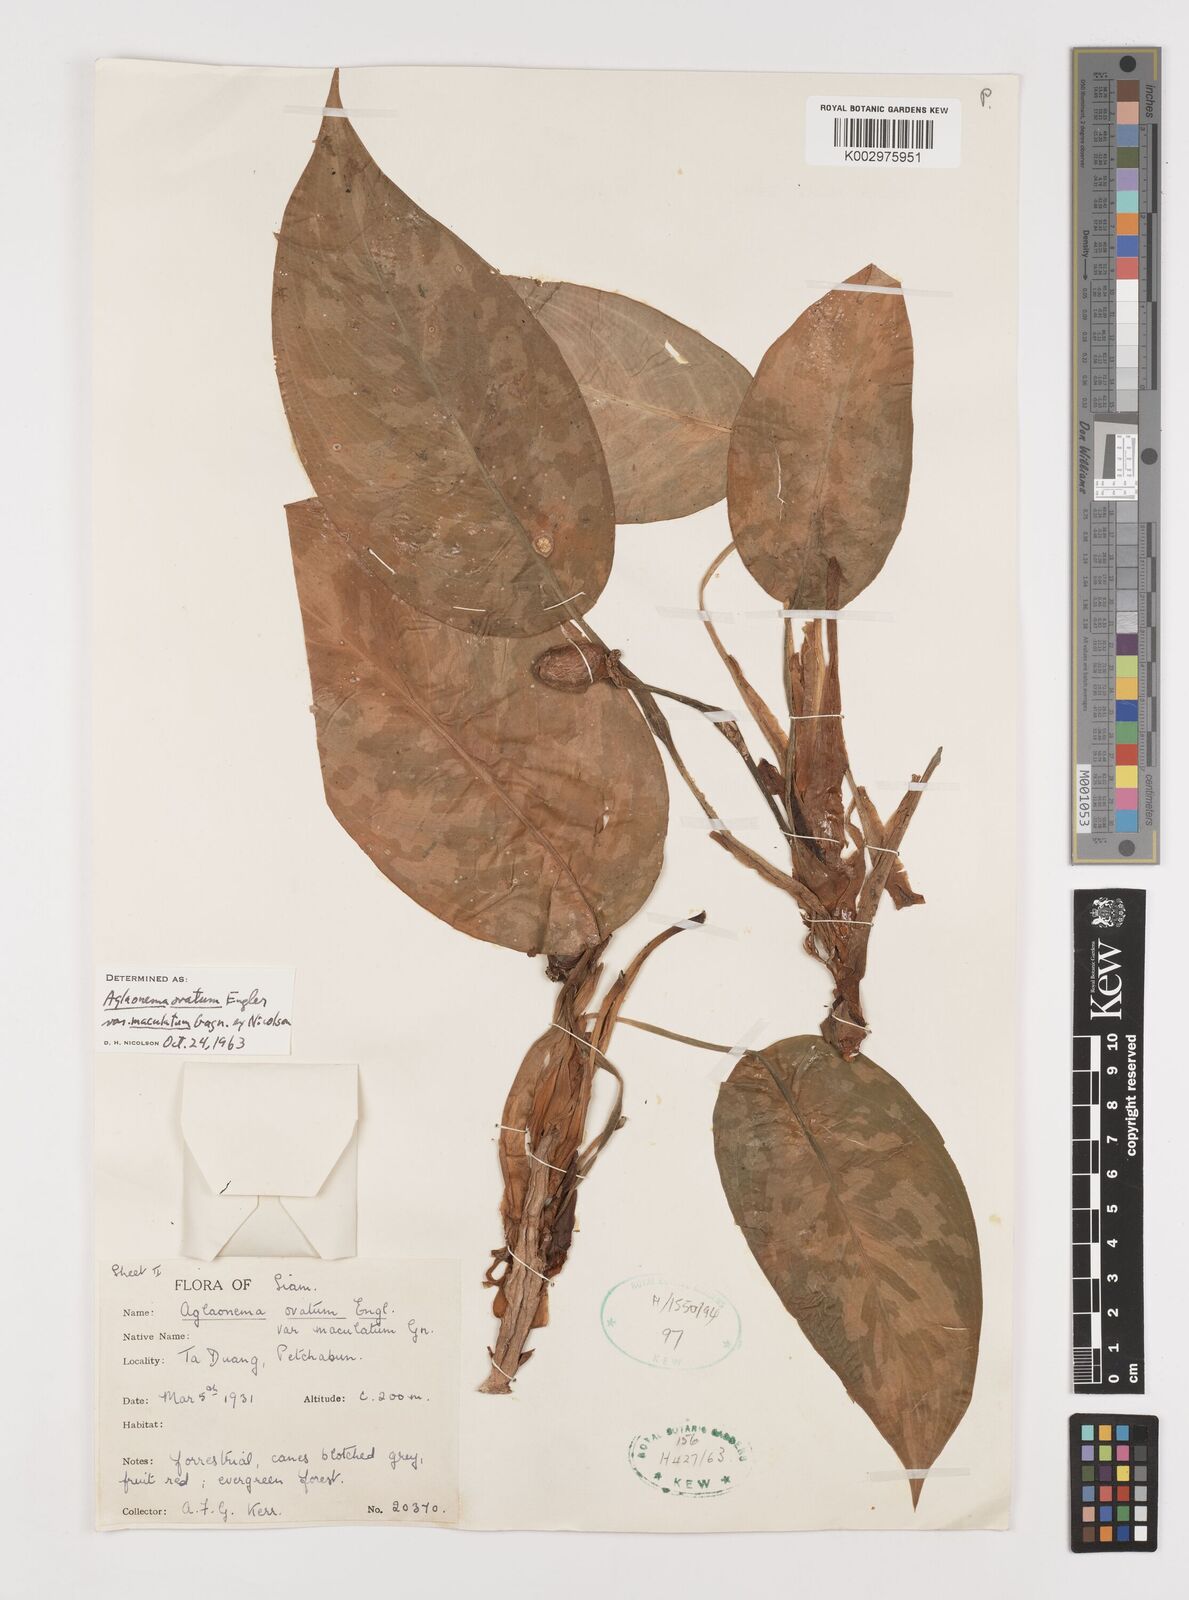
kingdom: Plantae
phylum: Tracheophyta
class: Liliopsida
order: Alismatales
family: Araceae
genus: Aglaonema
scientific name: Aglaonema ovatum
